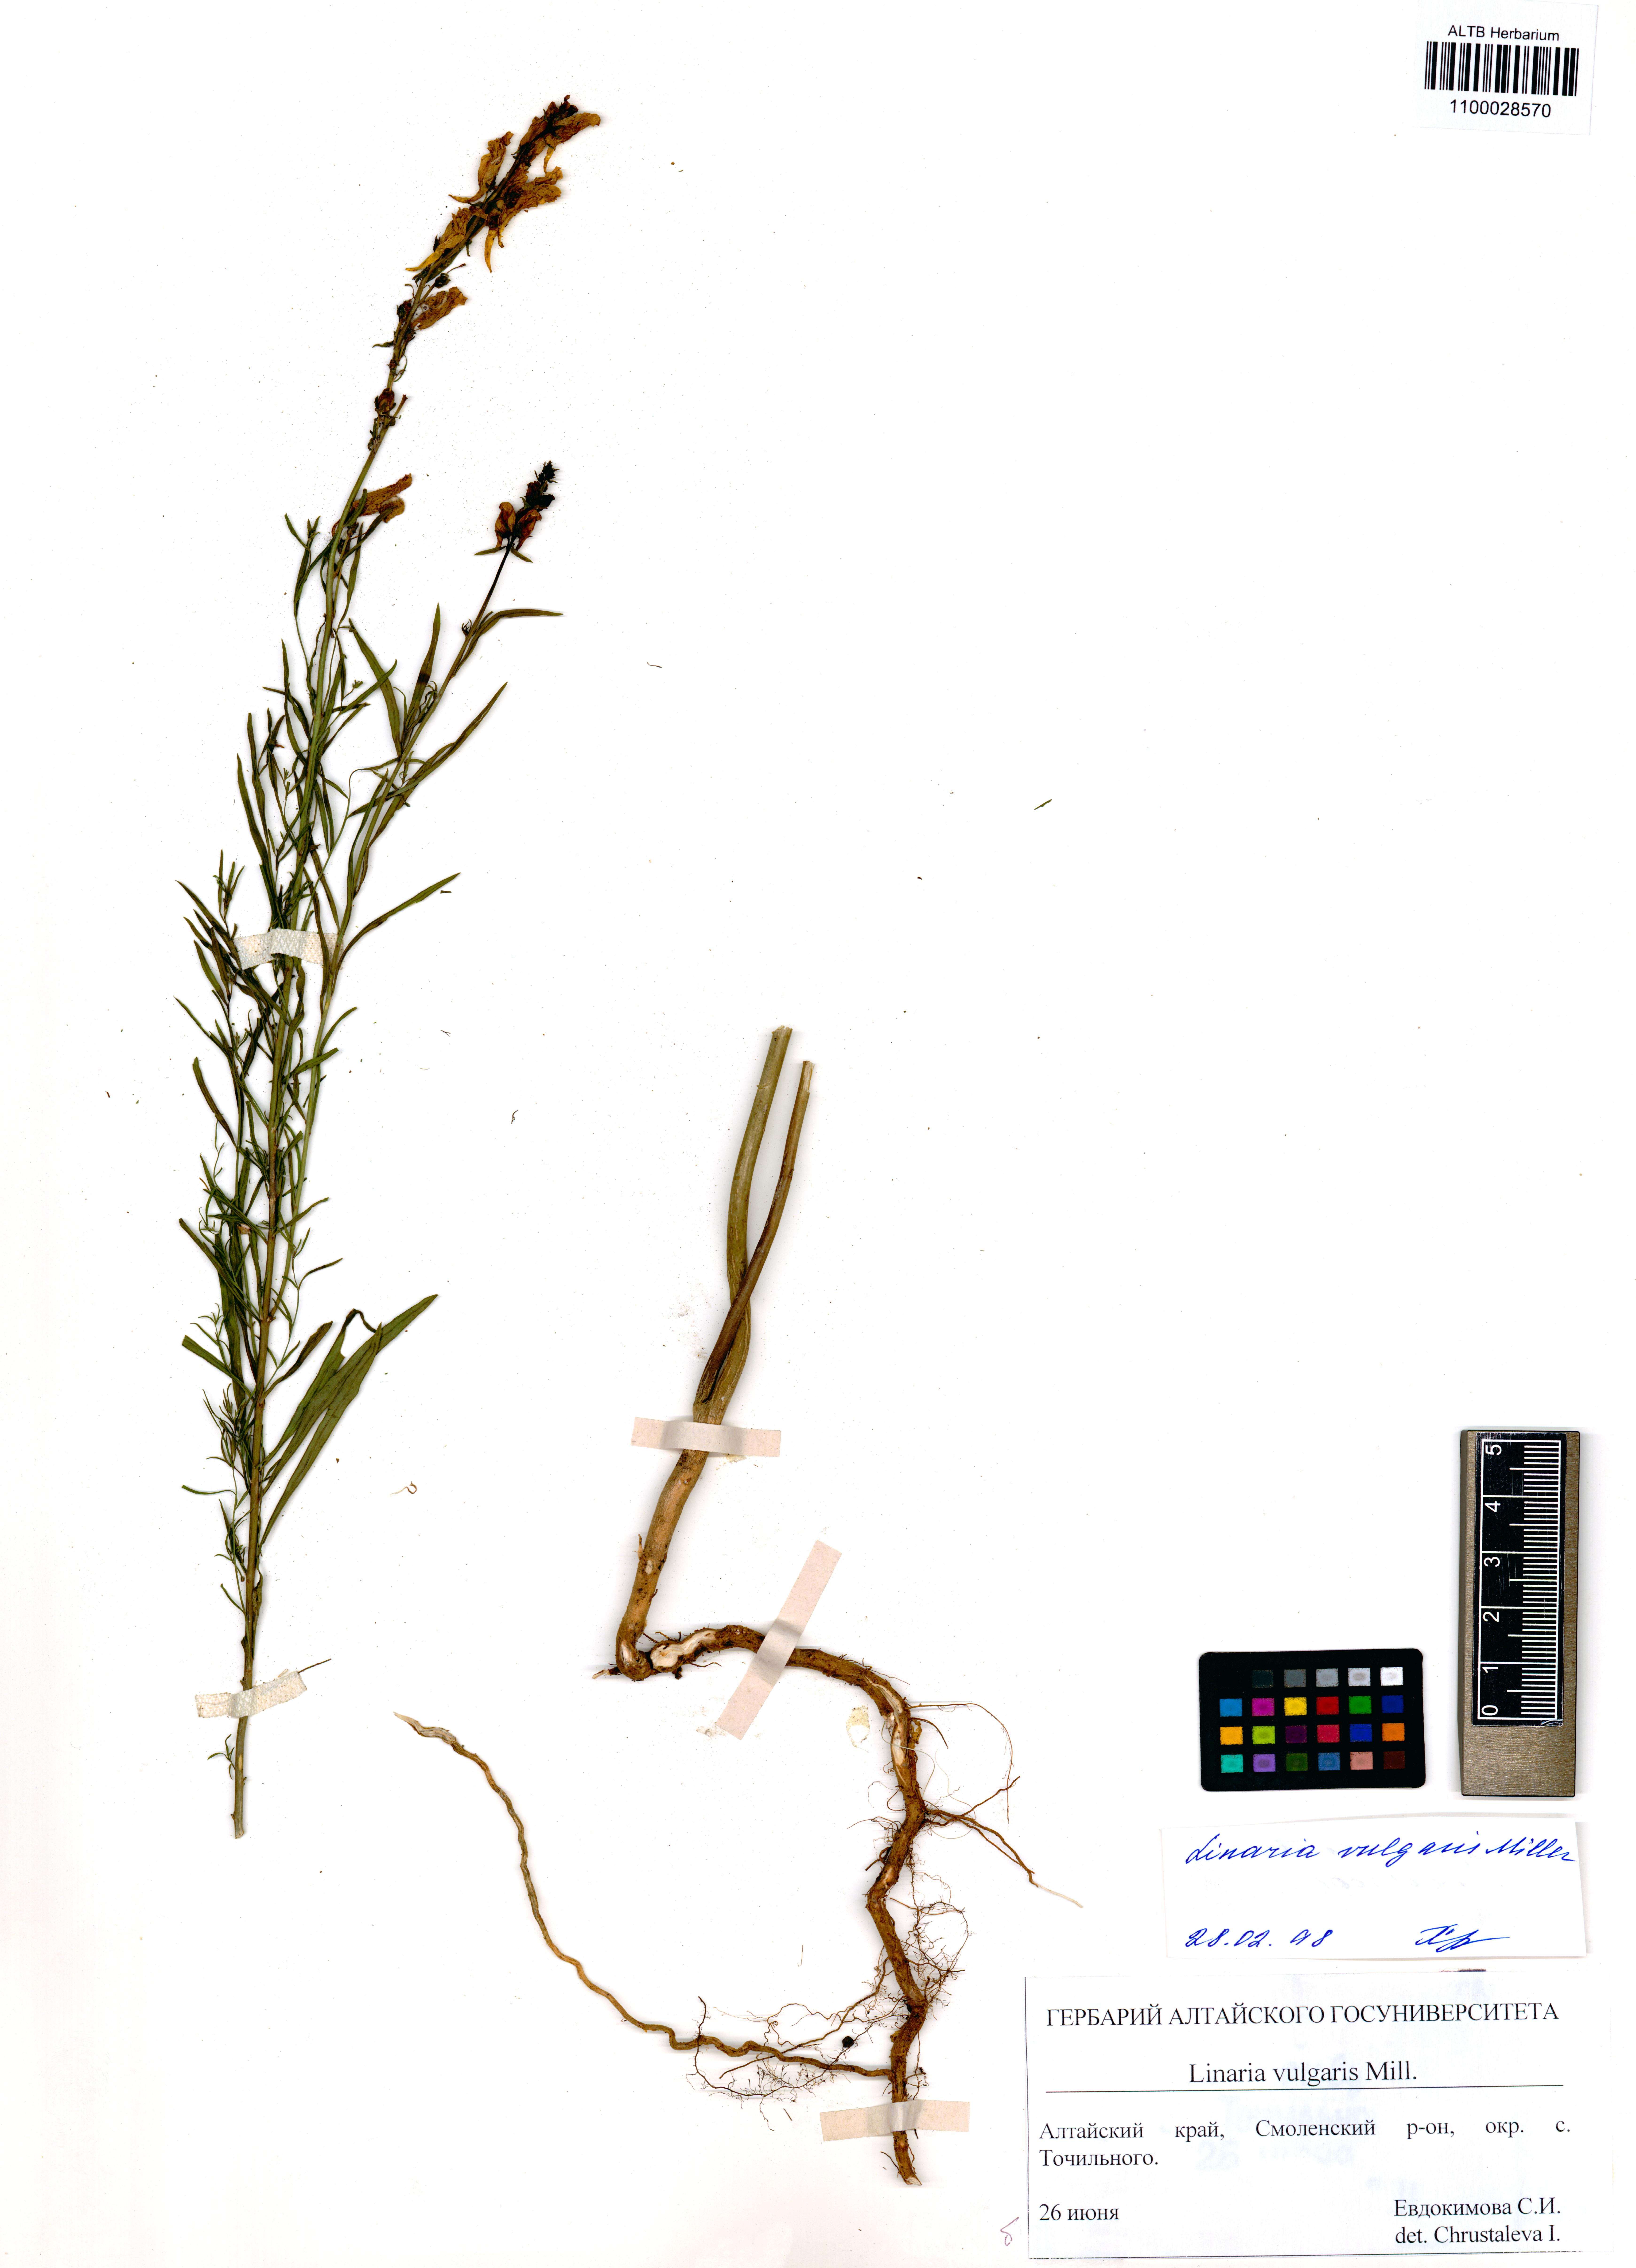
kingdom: Plantae
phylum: Tracheophyta
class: Magnoliopsida
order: Lamiales
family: Plantaginaceae
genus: Linaria
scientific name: Linaria vulgaris
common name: Butter and eggs
